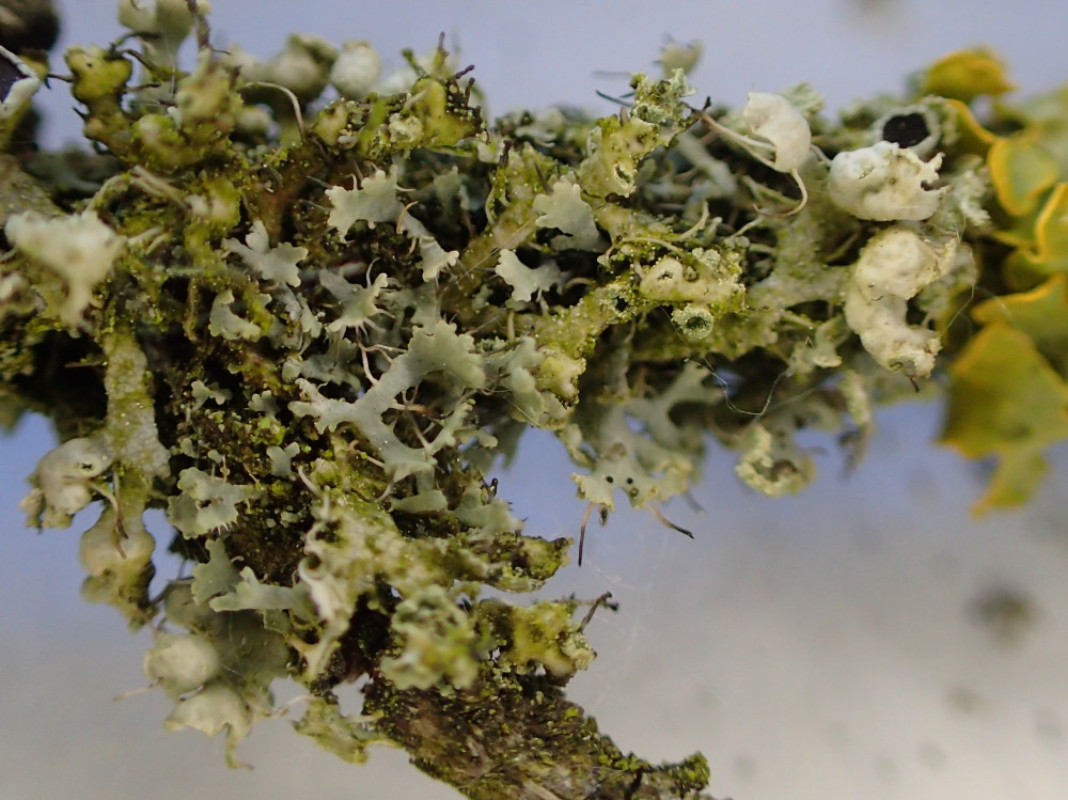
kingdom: Fungi
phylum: Ascomycota
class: Lecanoromycetes
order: Caliciales
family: Physciaceae
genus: Physcia
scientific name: Physcia adscendens
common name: hætte-rosetlav
